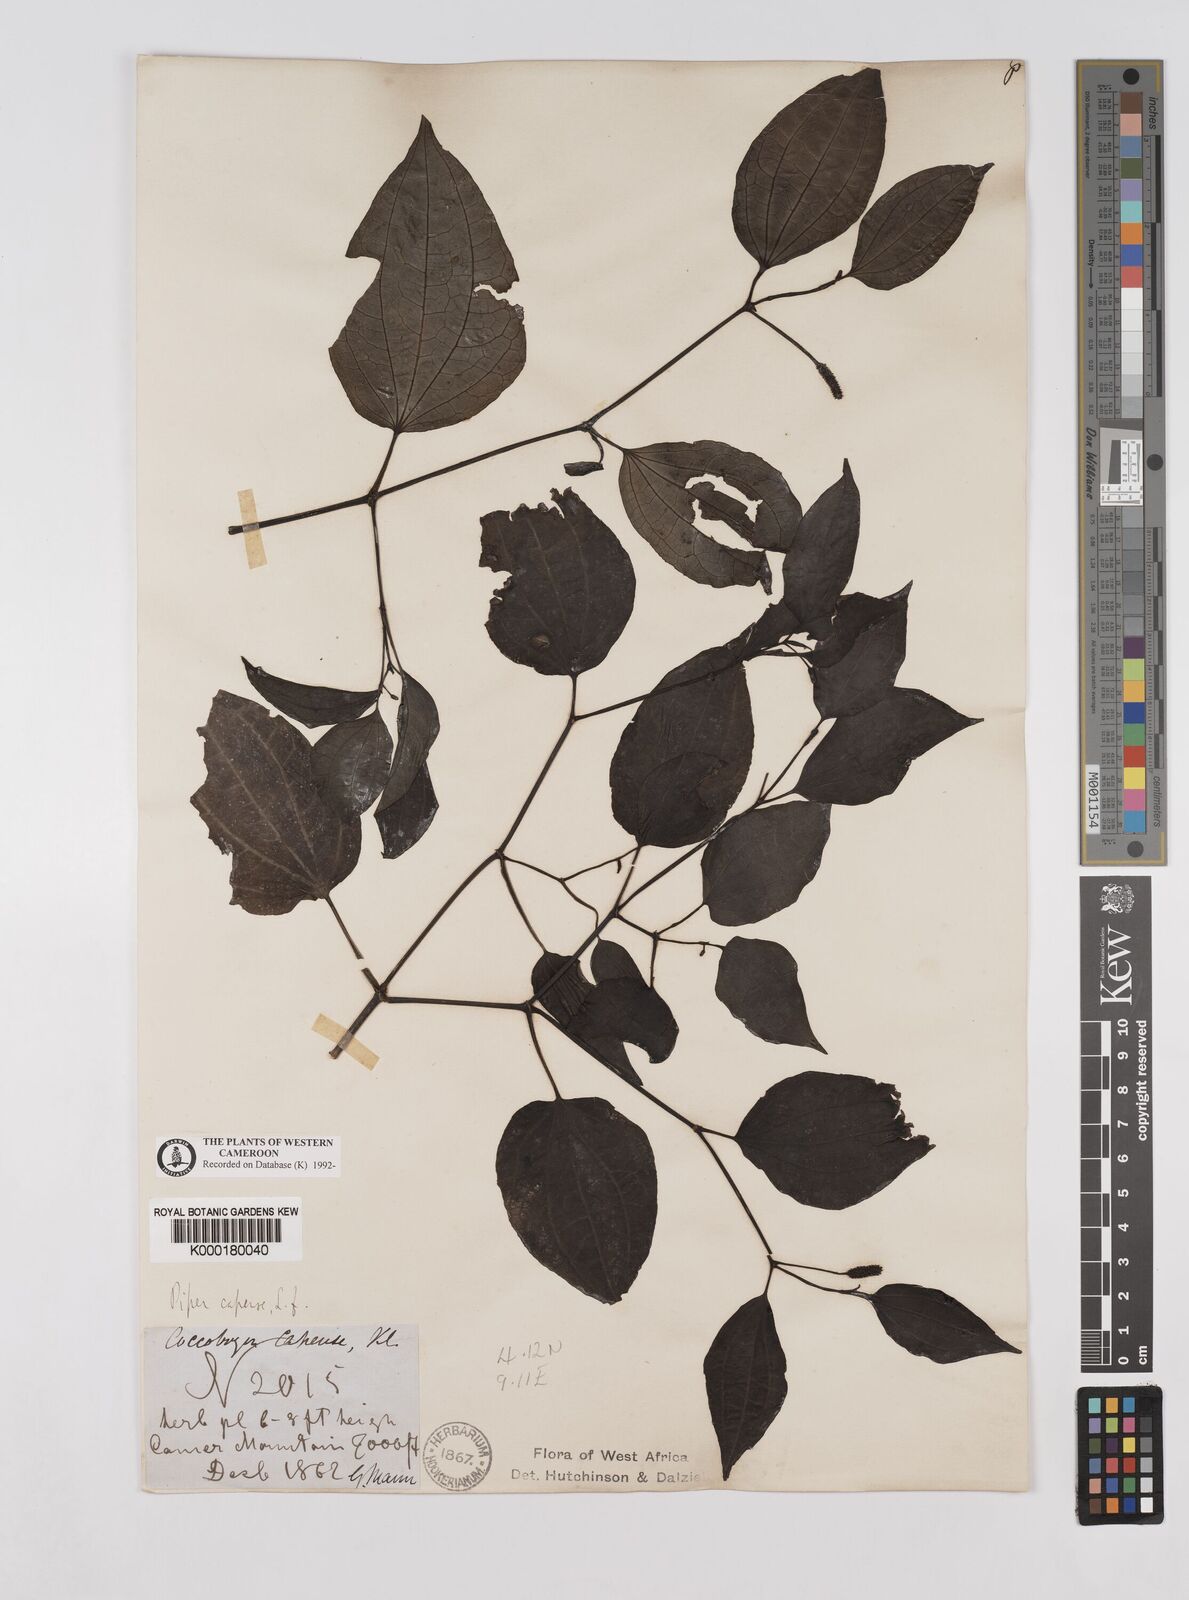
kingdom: Plantae
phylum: Tracheophyta
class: Magnoliopsida
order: Piperales
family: Piperaceae
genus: Piper
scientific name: Piper capense
